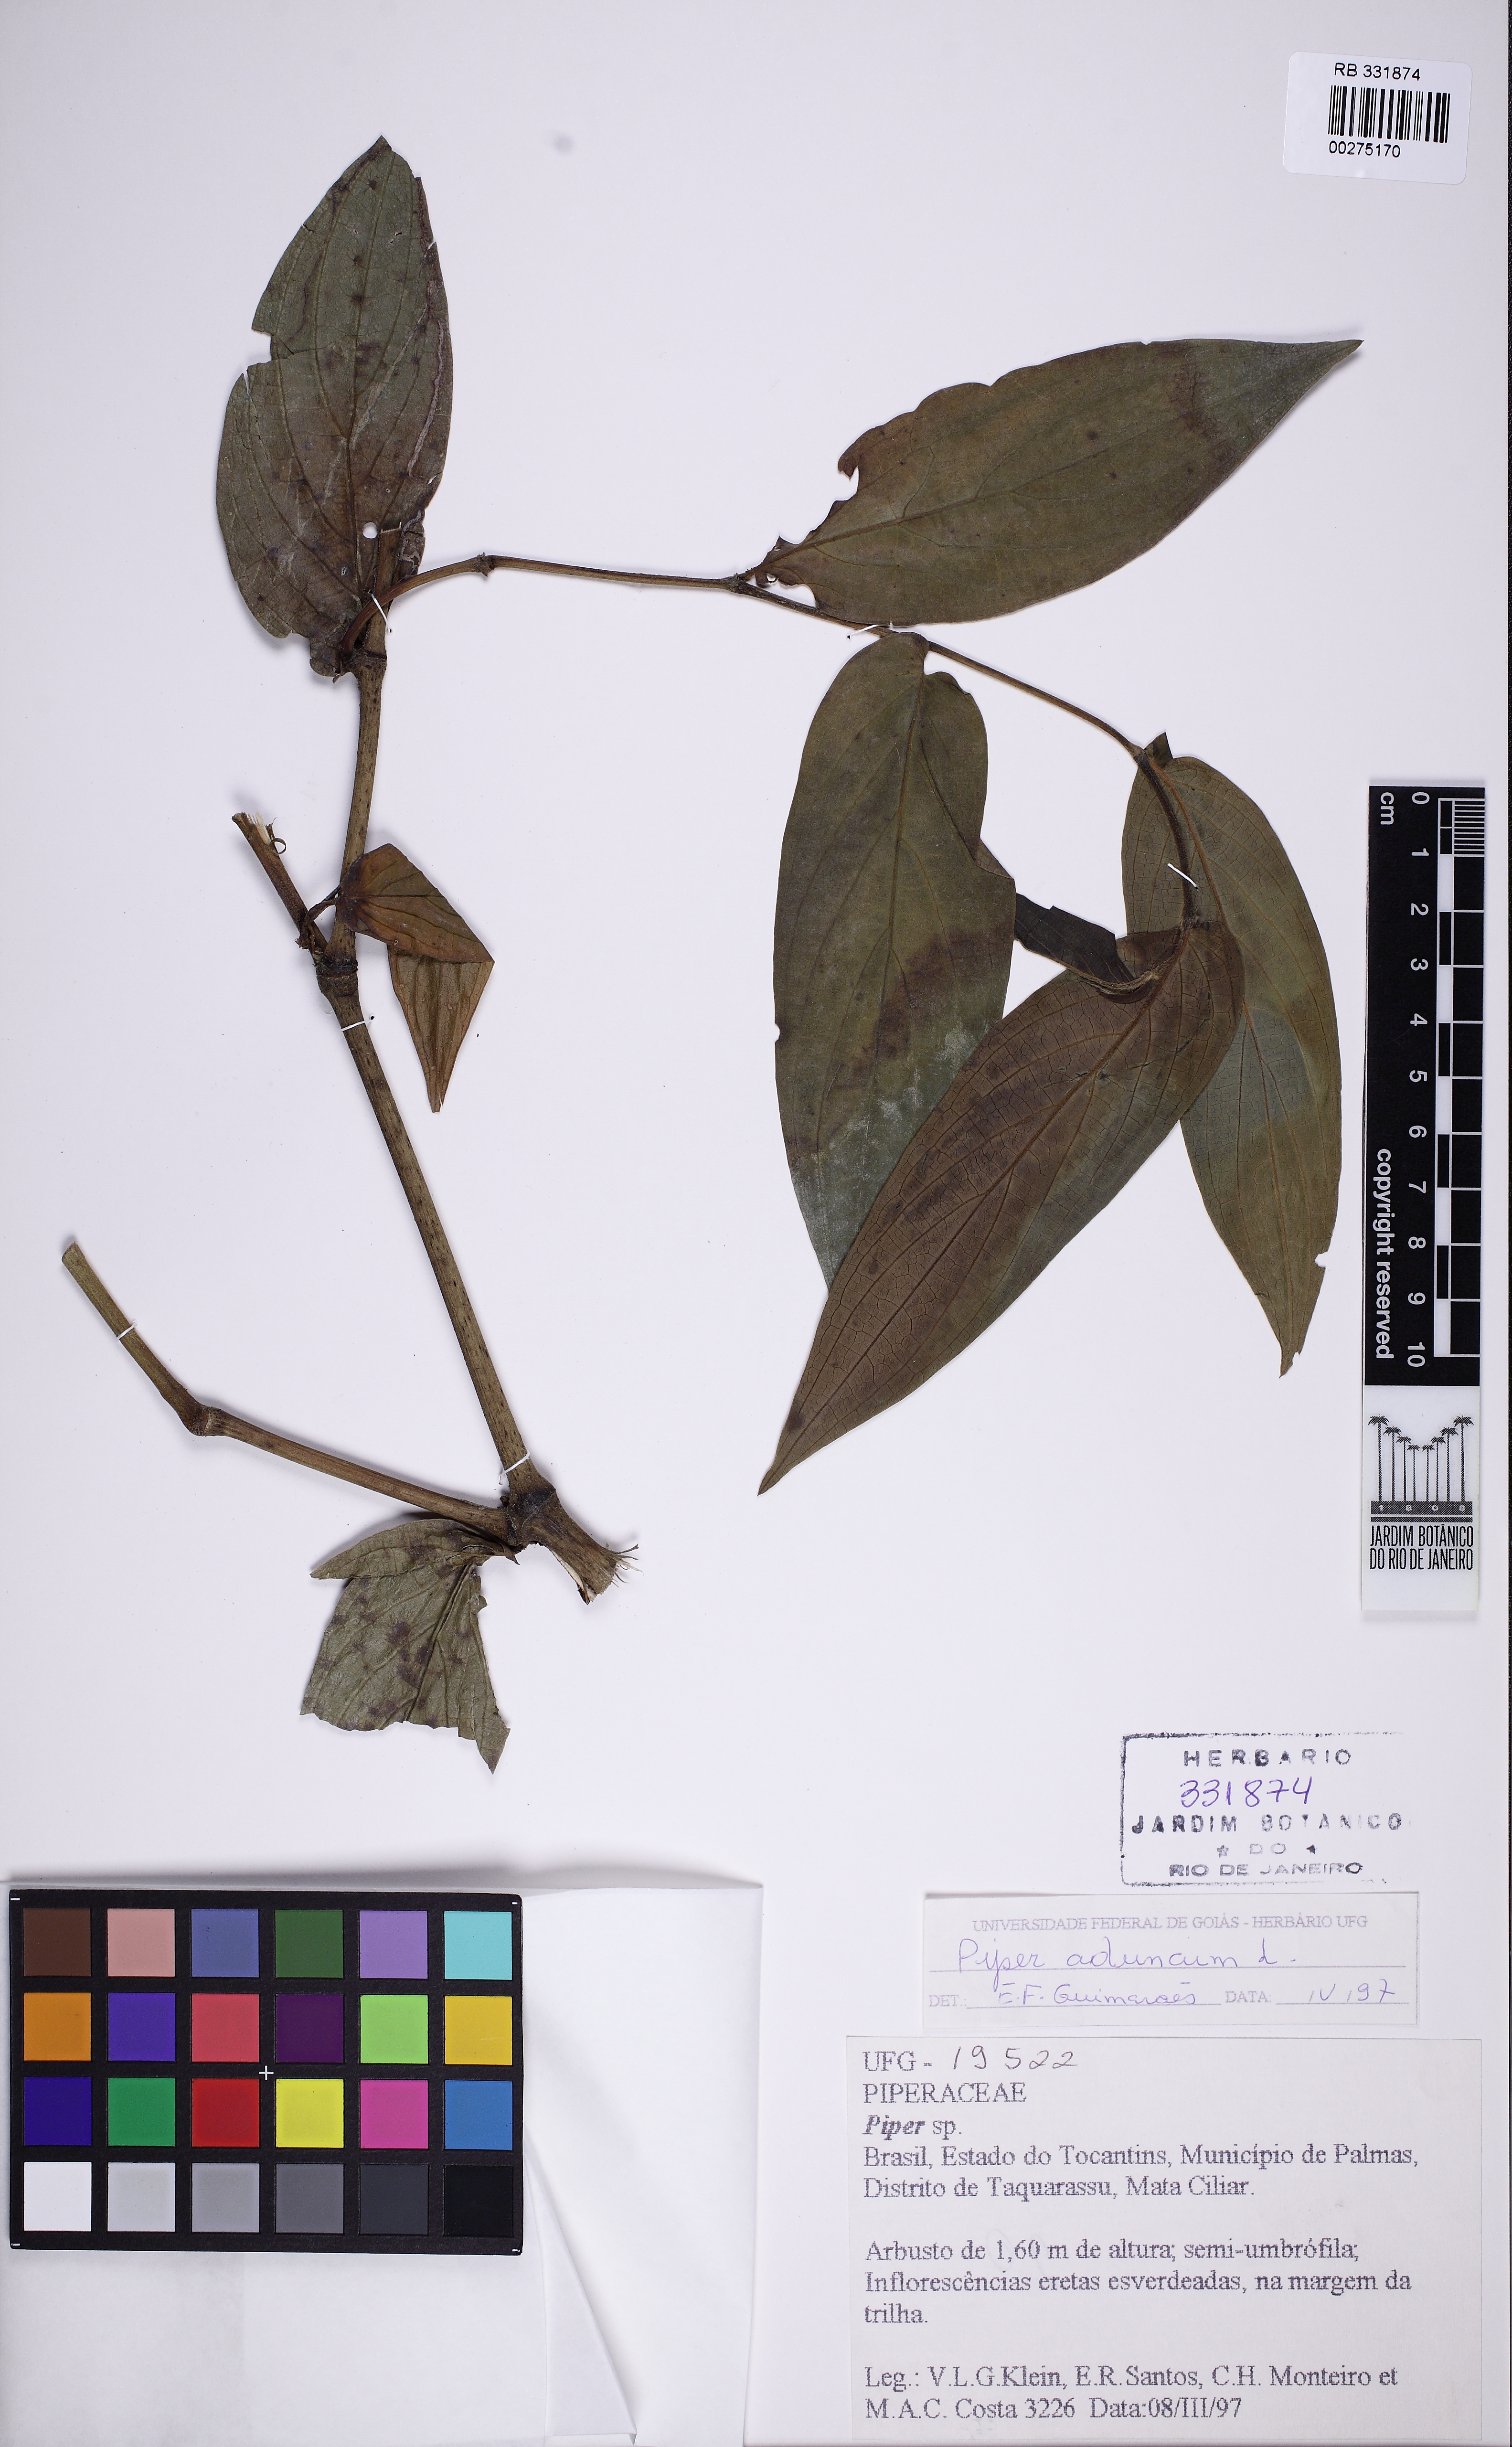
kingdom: Plantae
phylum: Tracheophyta
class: Magnoliopsida
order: Piperales
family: Piperaceae
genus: Piper
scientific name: Piper aduncum
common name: Spiked pepper
